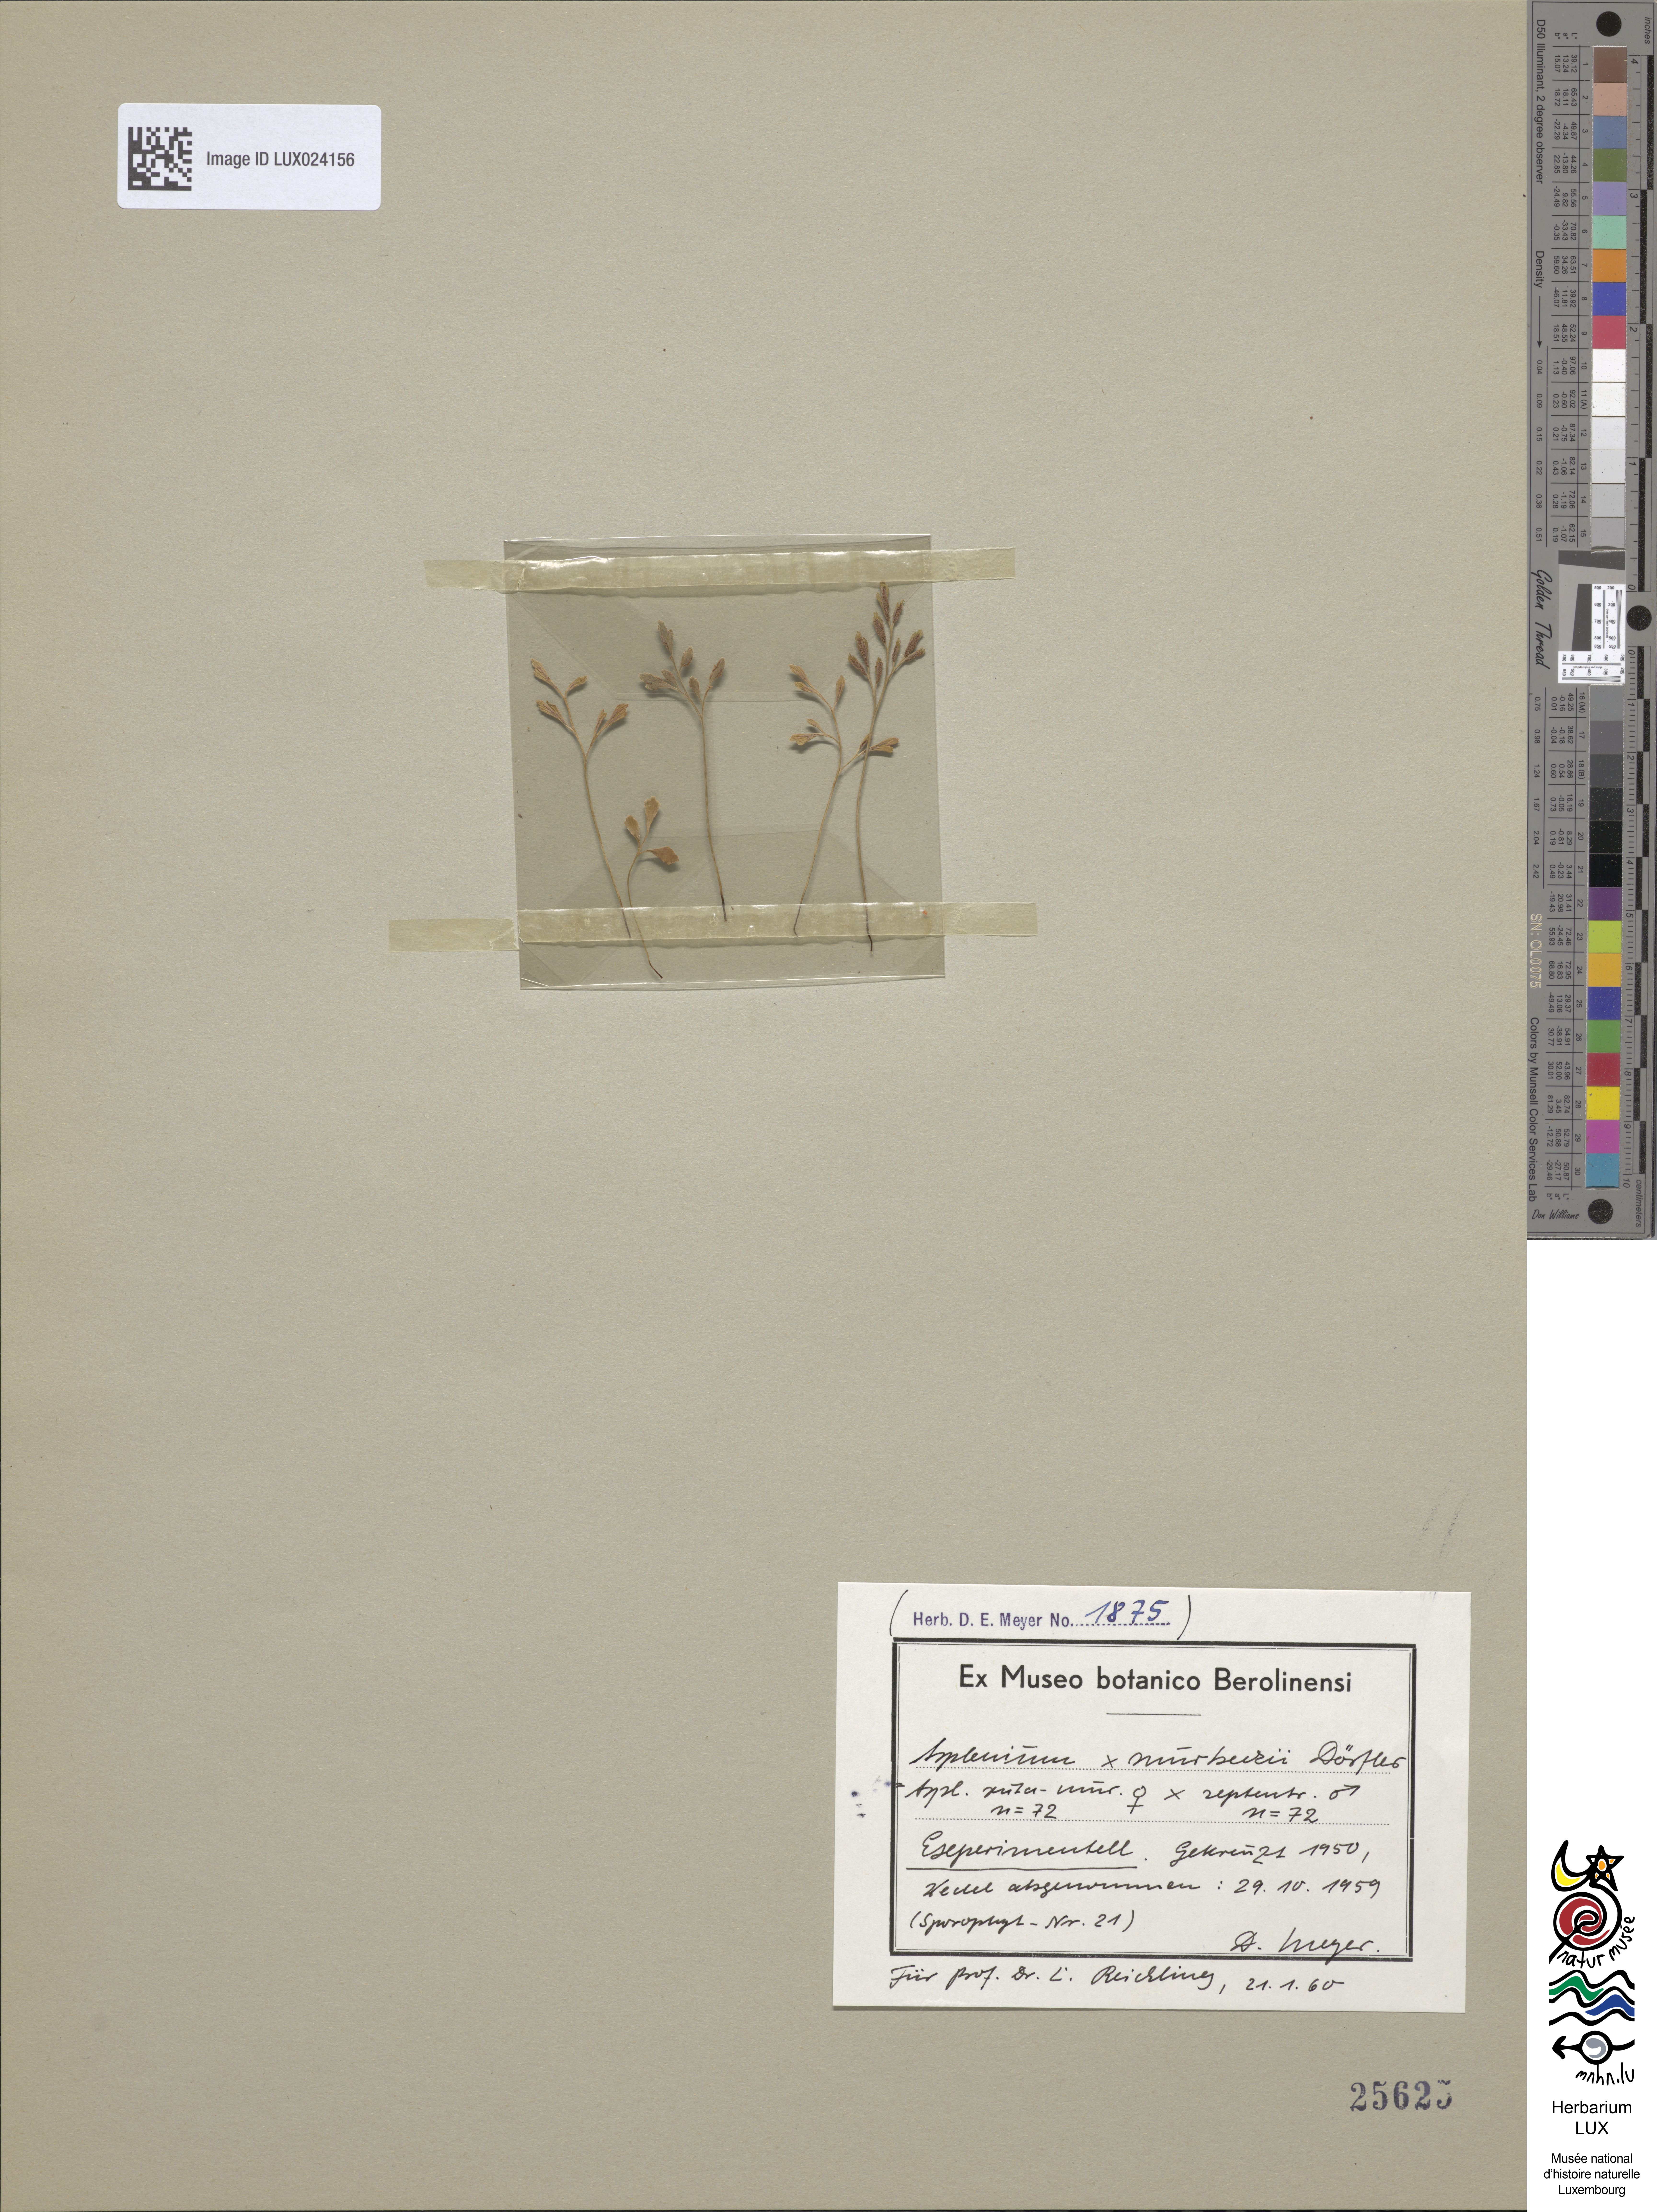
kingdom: Plantae
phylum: Tracheophyta
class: Polypodiopsida
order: Polypodiales
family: Aspleniaceae
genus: Asplenium
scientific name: Asplenium murbeckii
